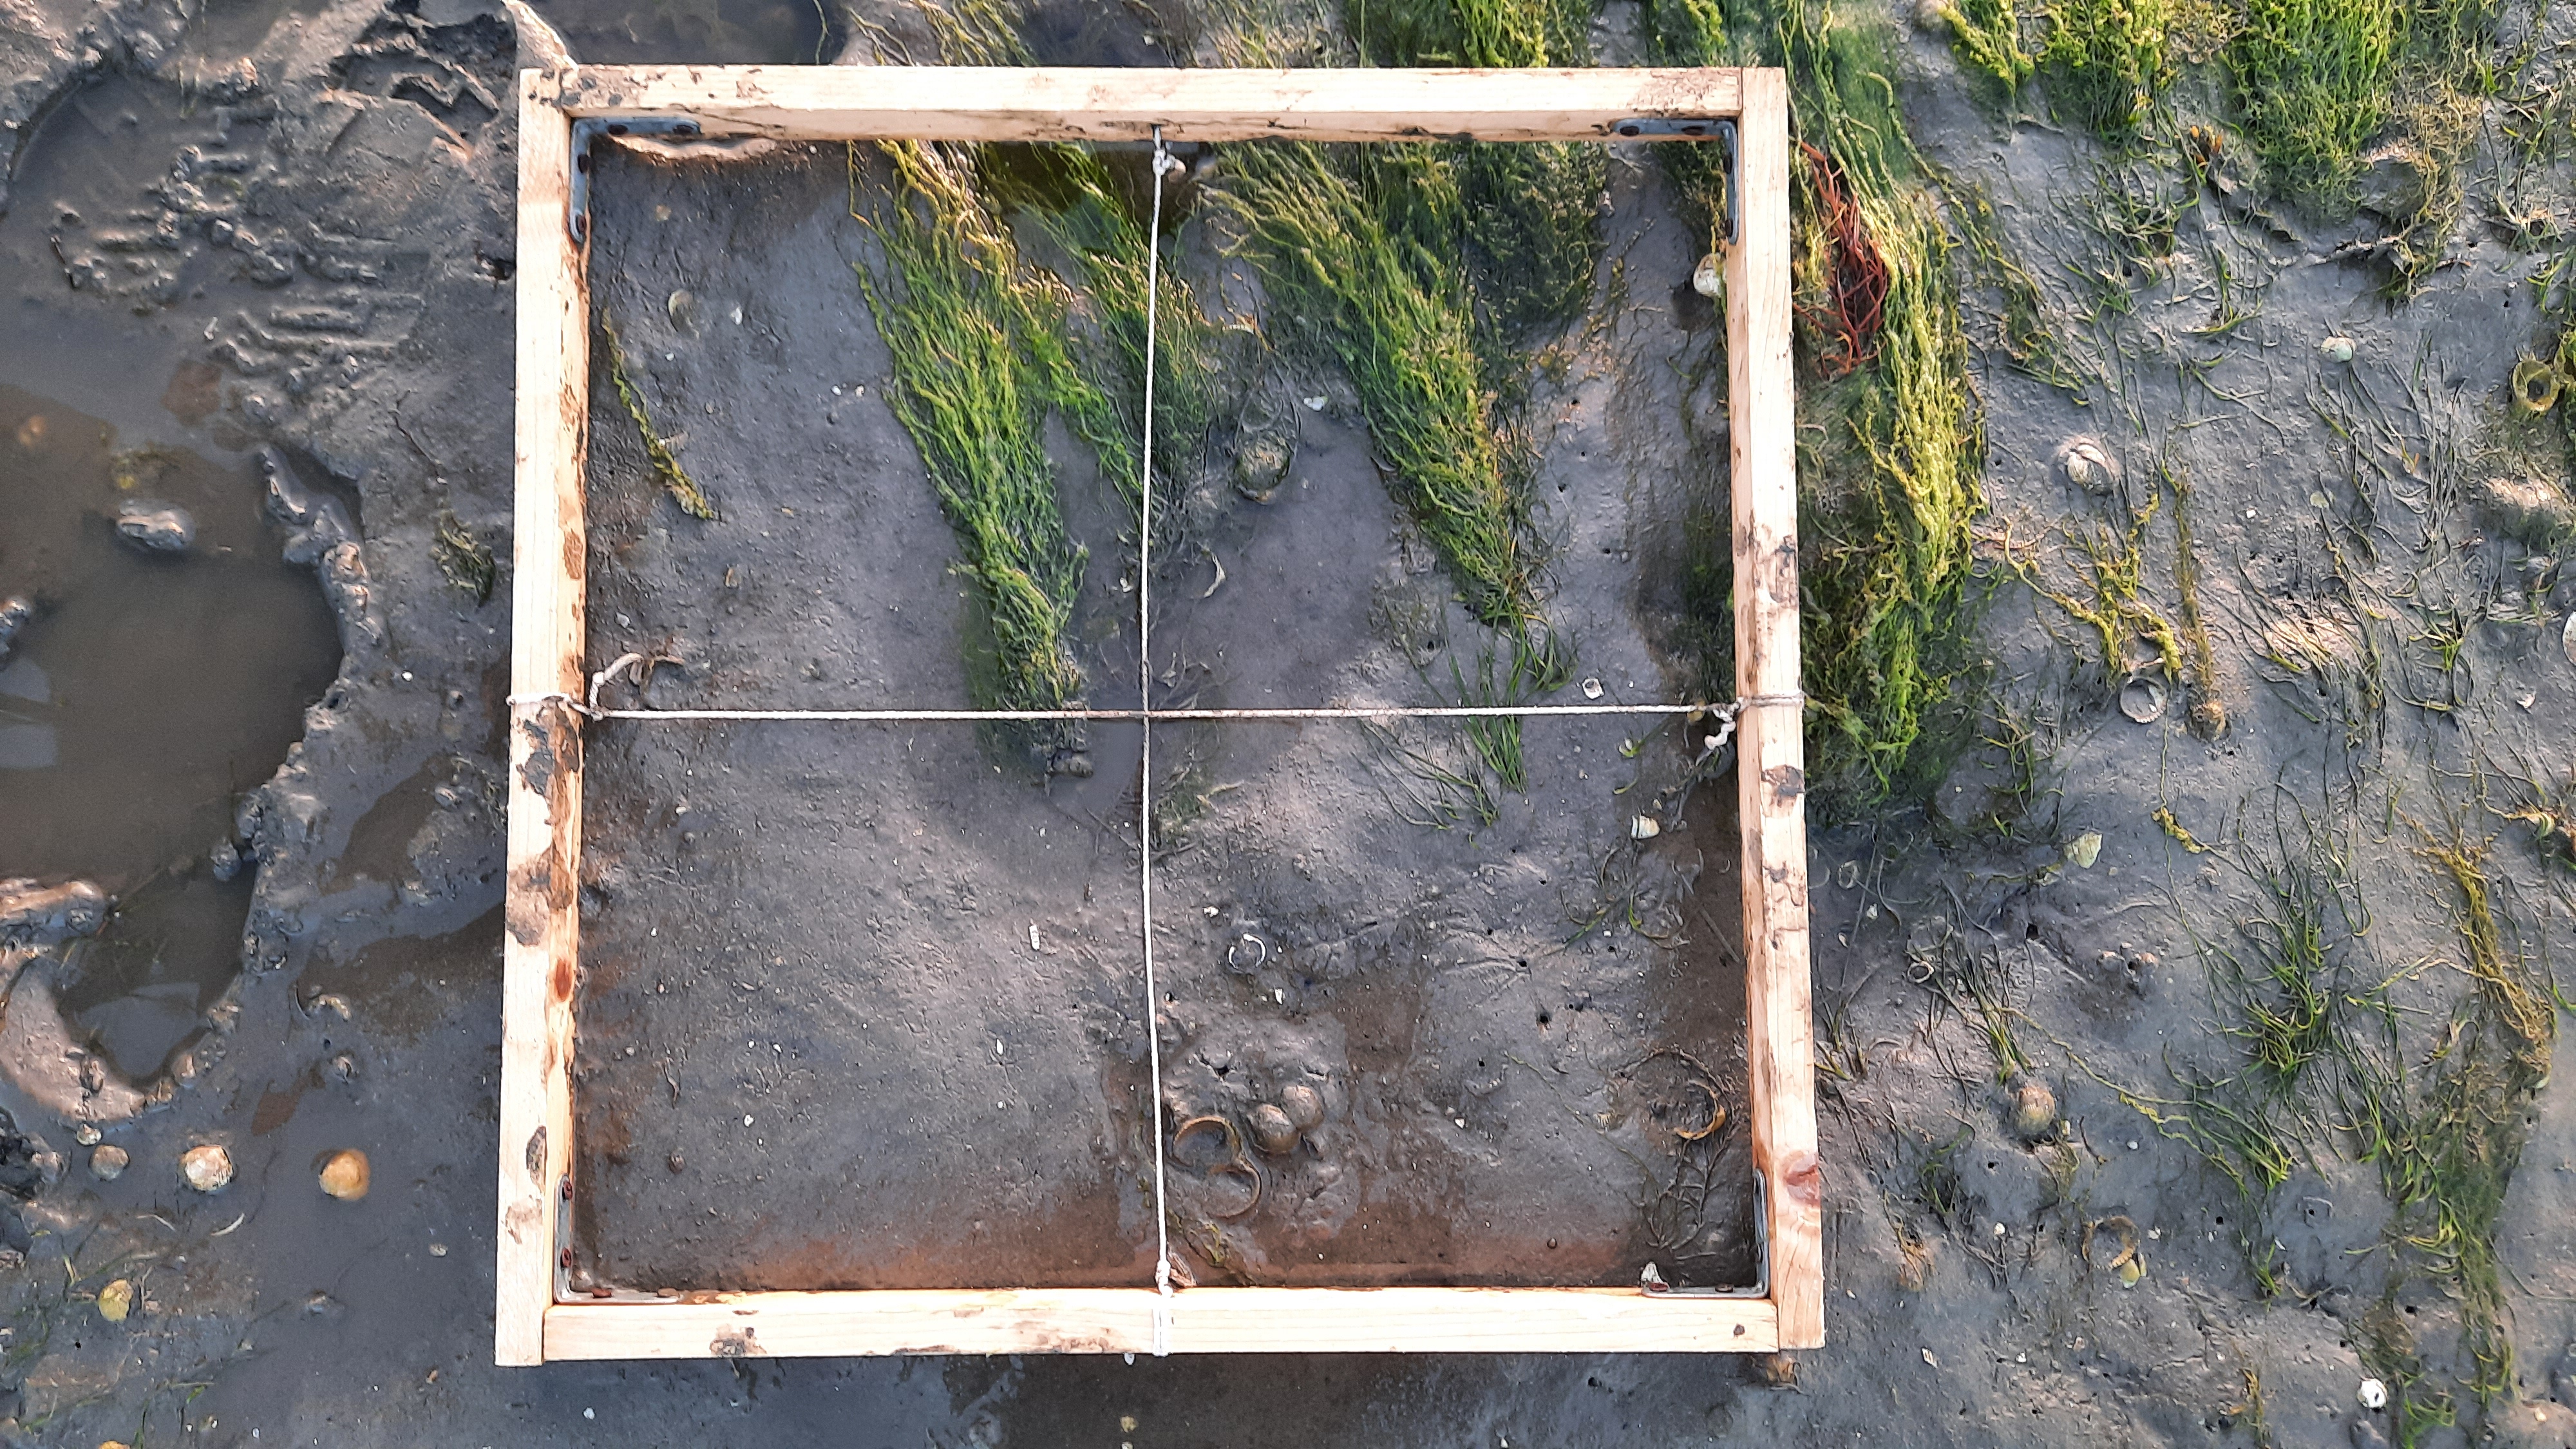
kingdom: Plantae
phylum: Chlorophyta
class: Ulvophyceae
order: Ulvales
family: Ulvaceae
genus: Ulva
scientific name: Ulva
